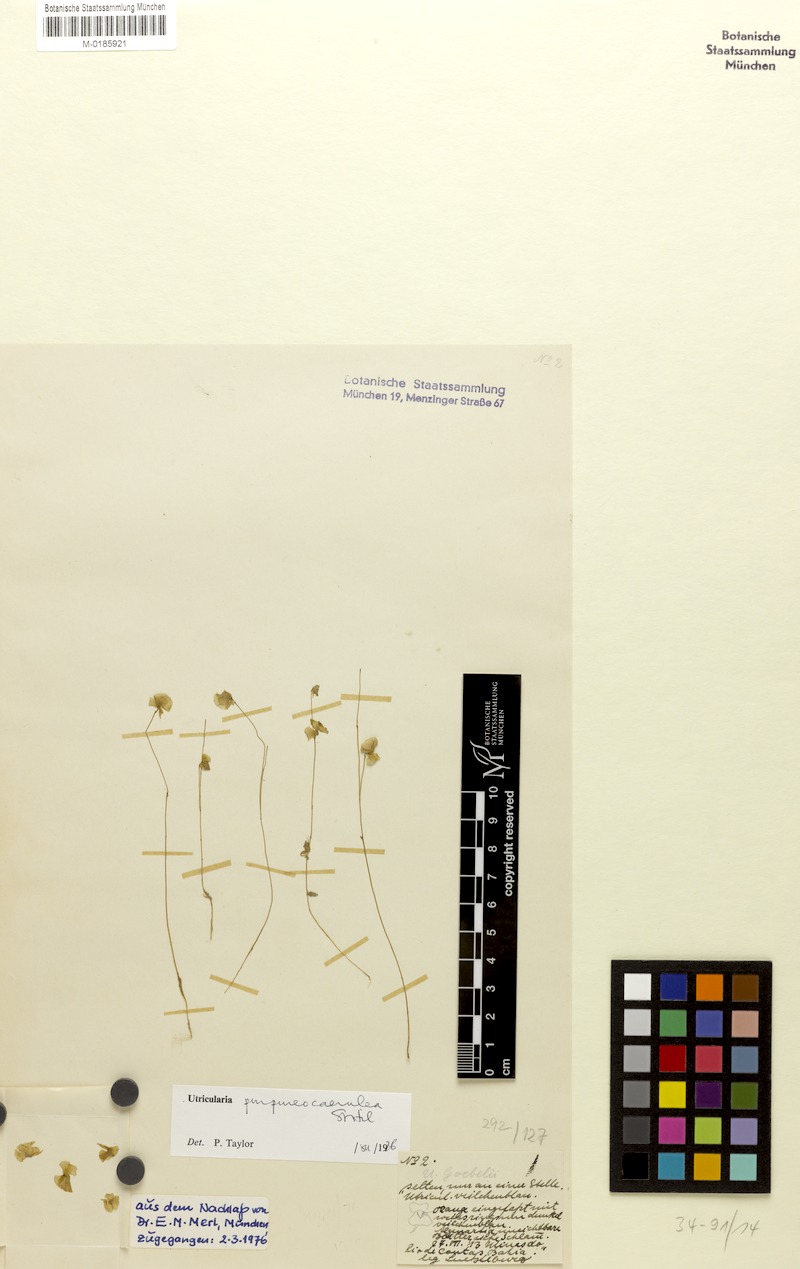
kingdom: Plantae
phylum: Tracheophyta
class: Magnoliopsida
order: Lamiales
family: Lentibulariaceae
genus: Utricularia
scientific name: Utricularia purpureocaerulea
